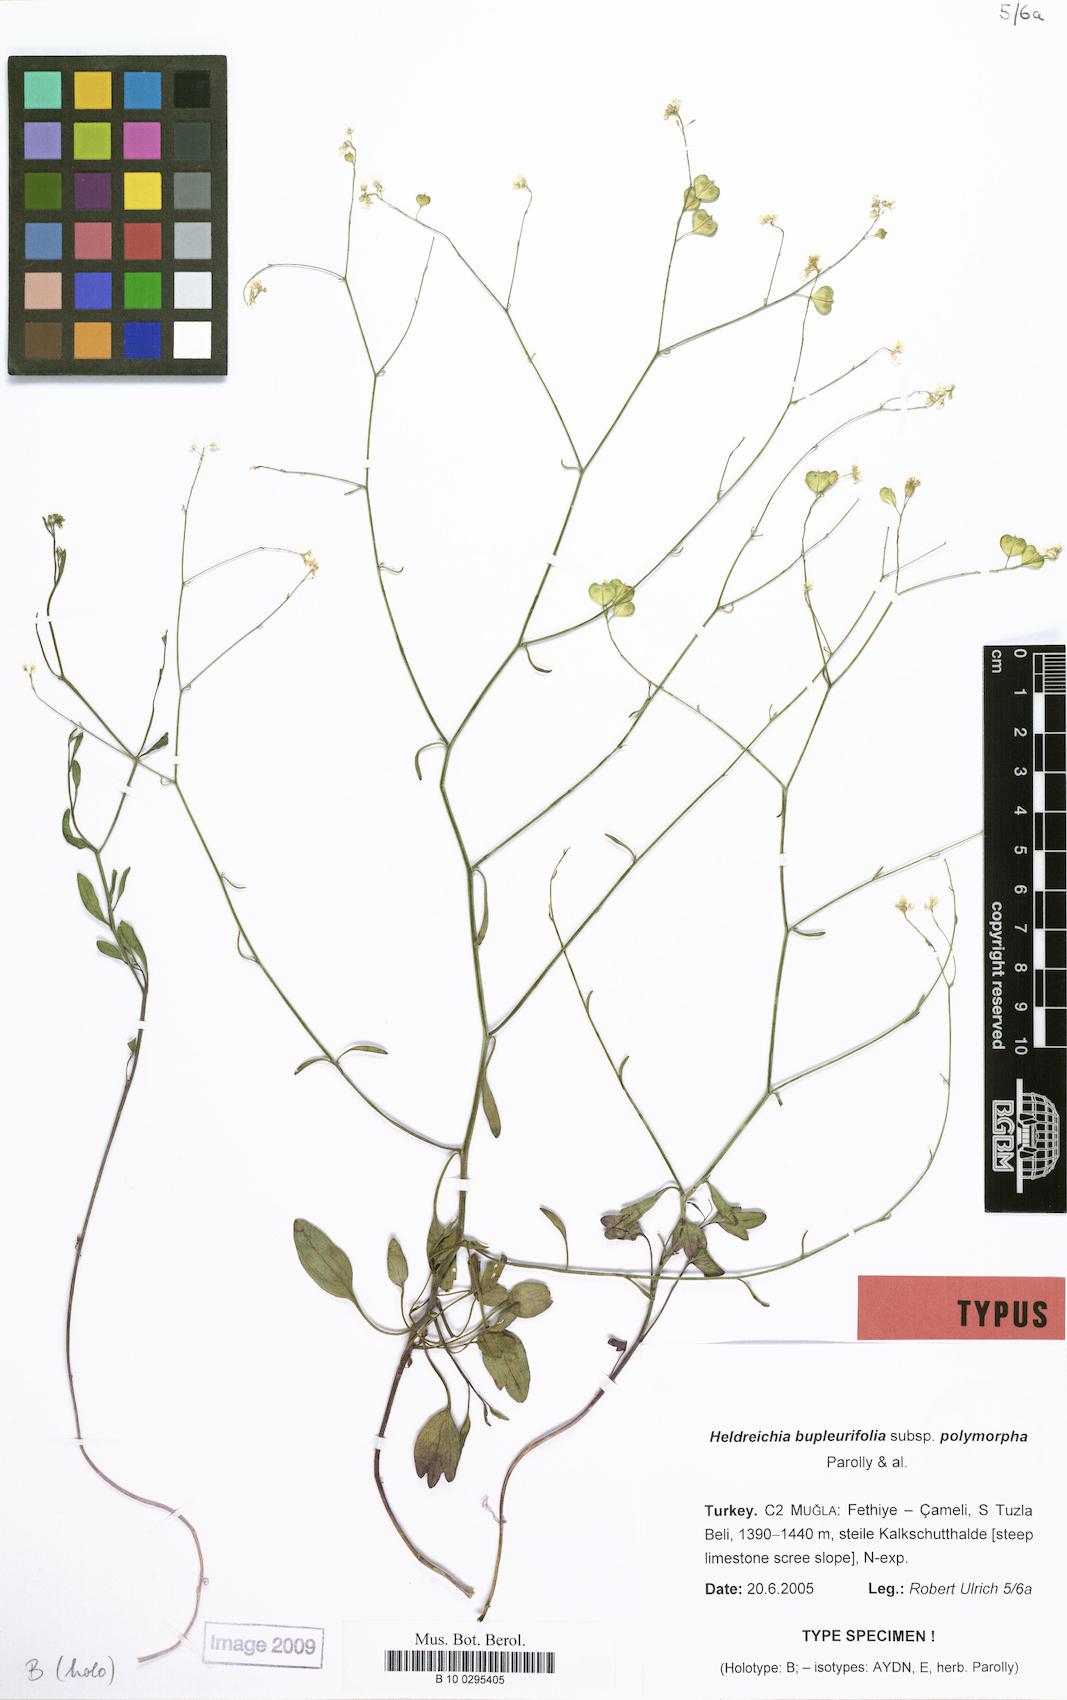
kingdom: Plantae
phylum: Tracheophyta
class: Magnoliopsida
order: Brassicales
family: Brassicaceae
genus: Heldreichia
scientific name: Heldreichia bupleurifolia
